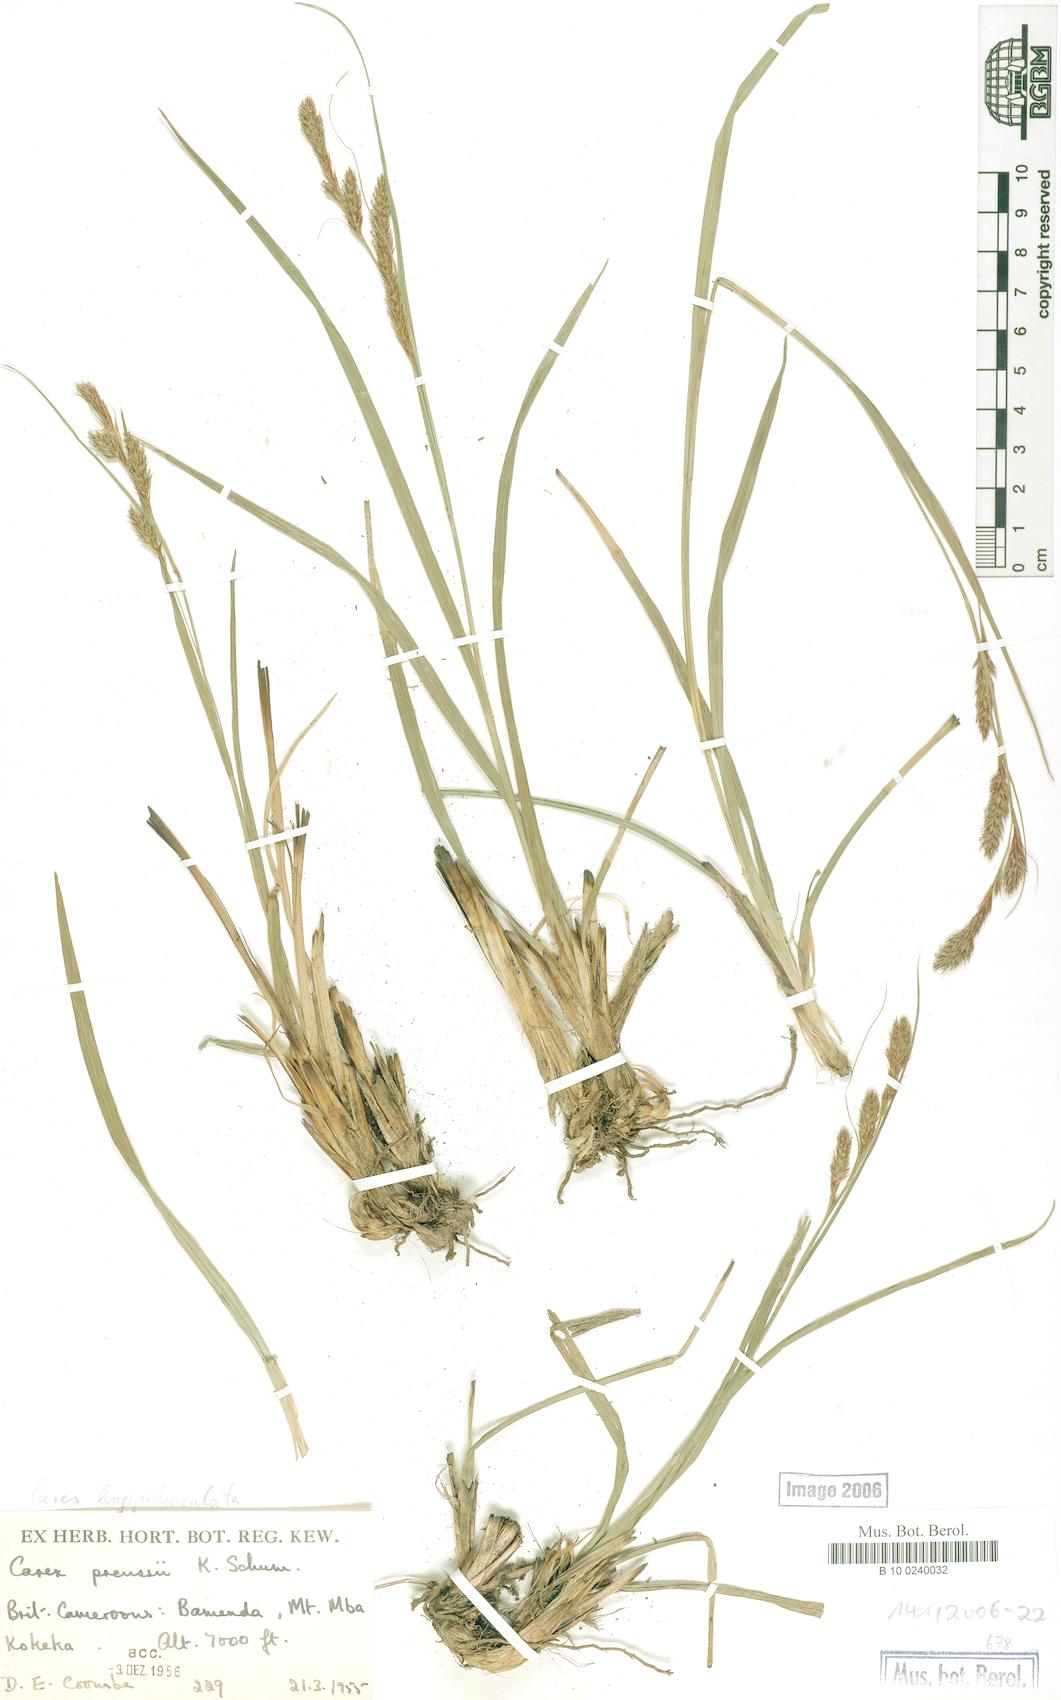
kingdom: Plantae
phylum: Tracheophyta
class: Liliopsida
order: Poales
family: Cyperaceae
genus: Carex
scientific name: Carex petitiana
